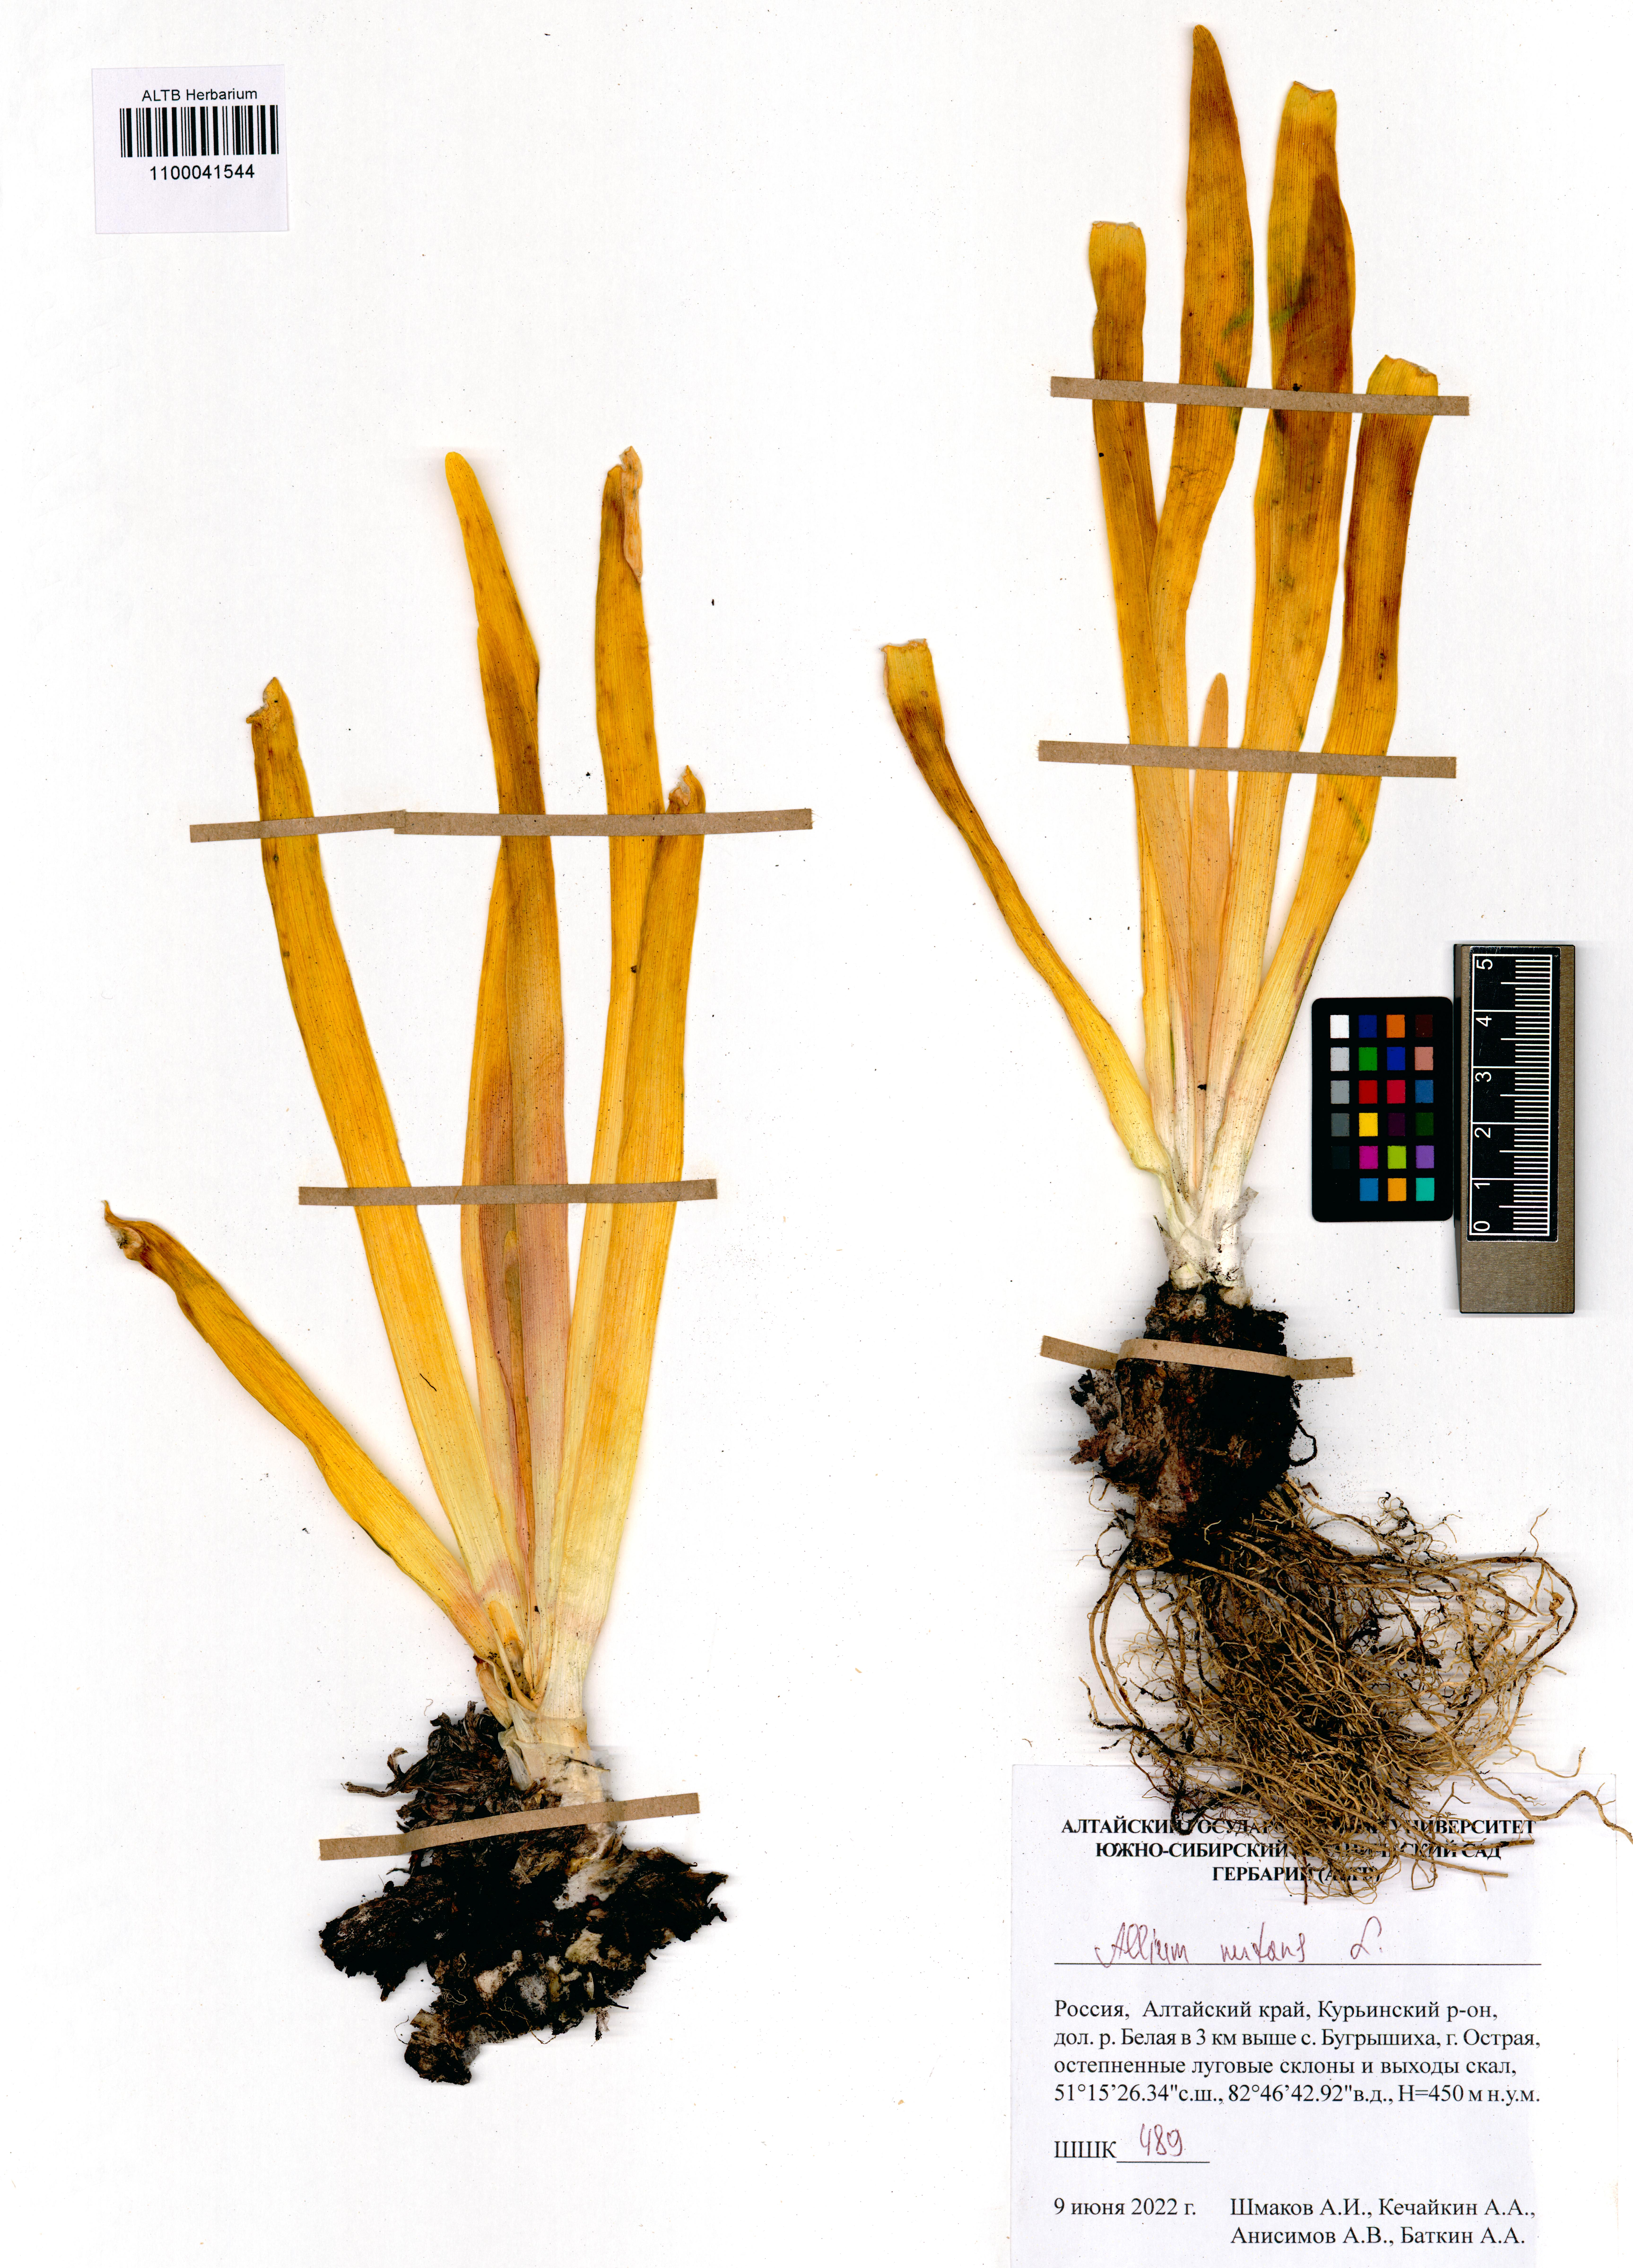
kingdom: Plantae
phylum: Tracheophyta
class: Liliopsida
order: Asparagales
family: Amaryllidaceae
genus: Allium
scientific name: Allium nutans
